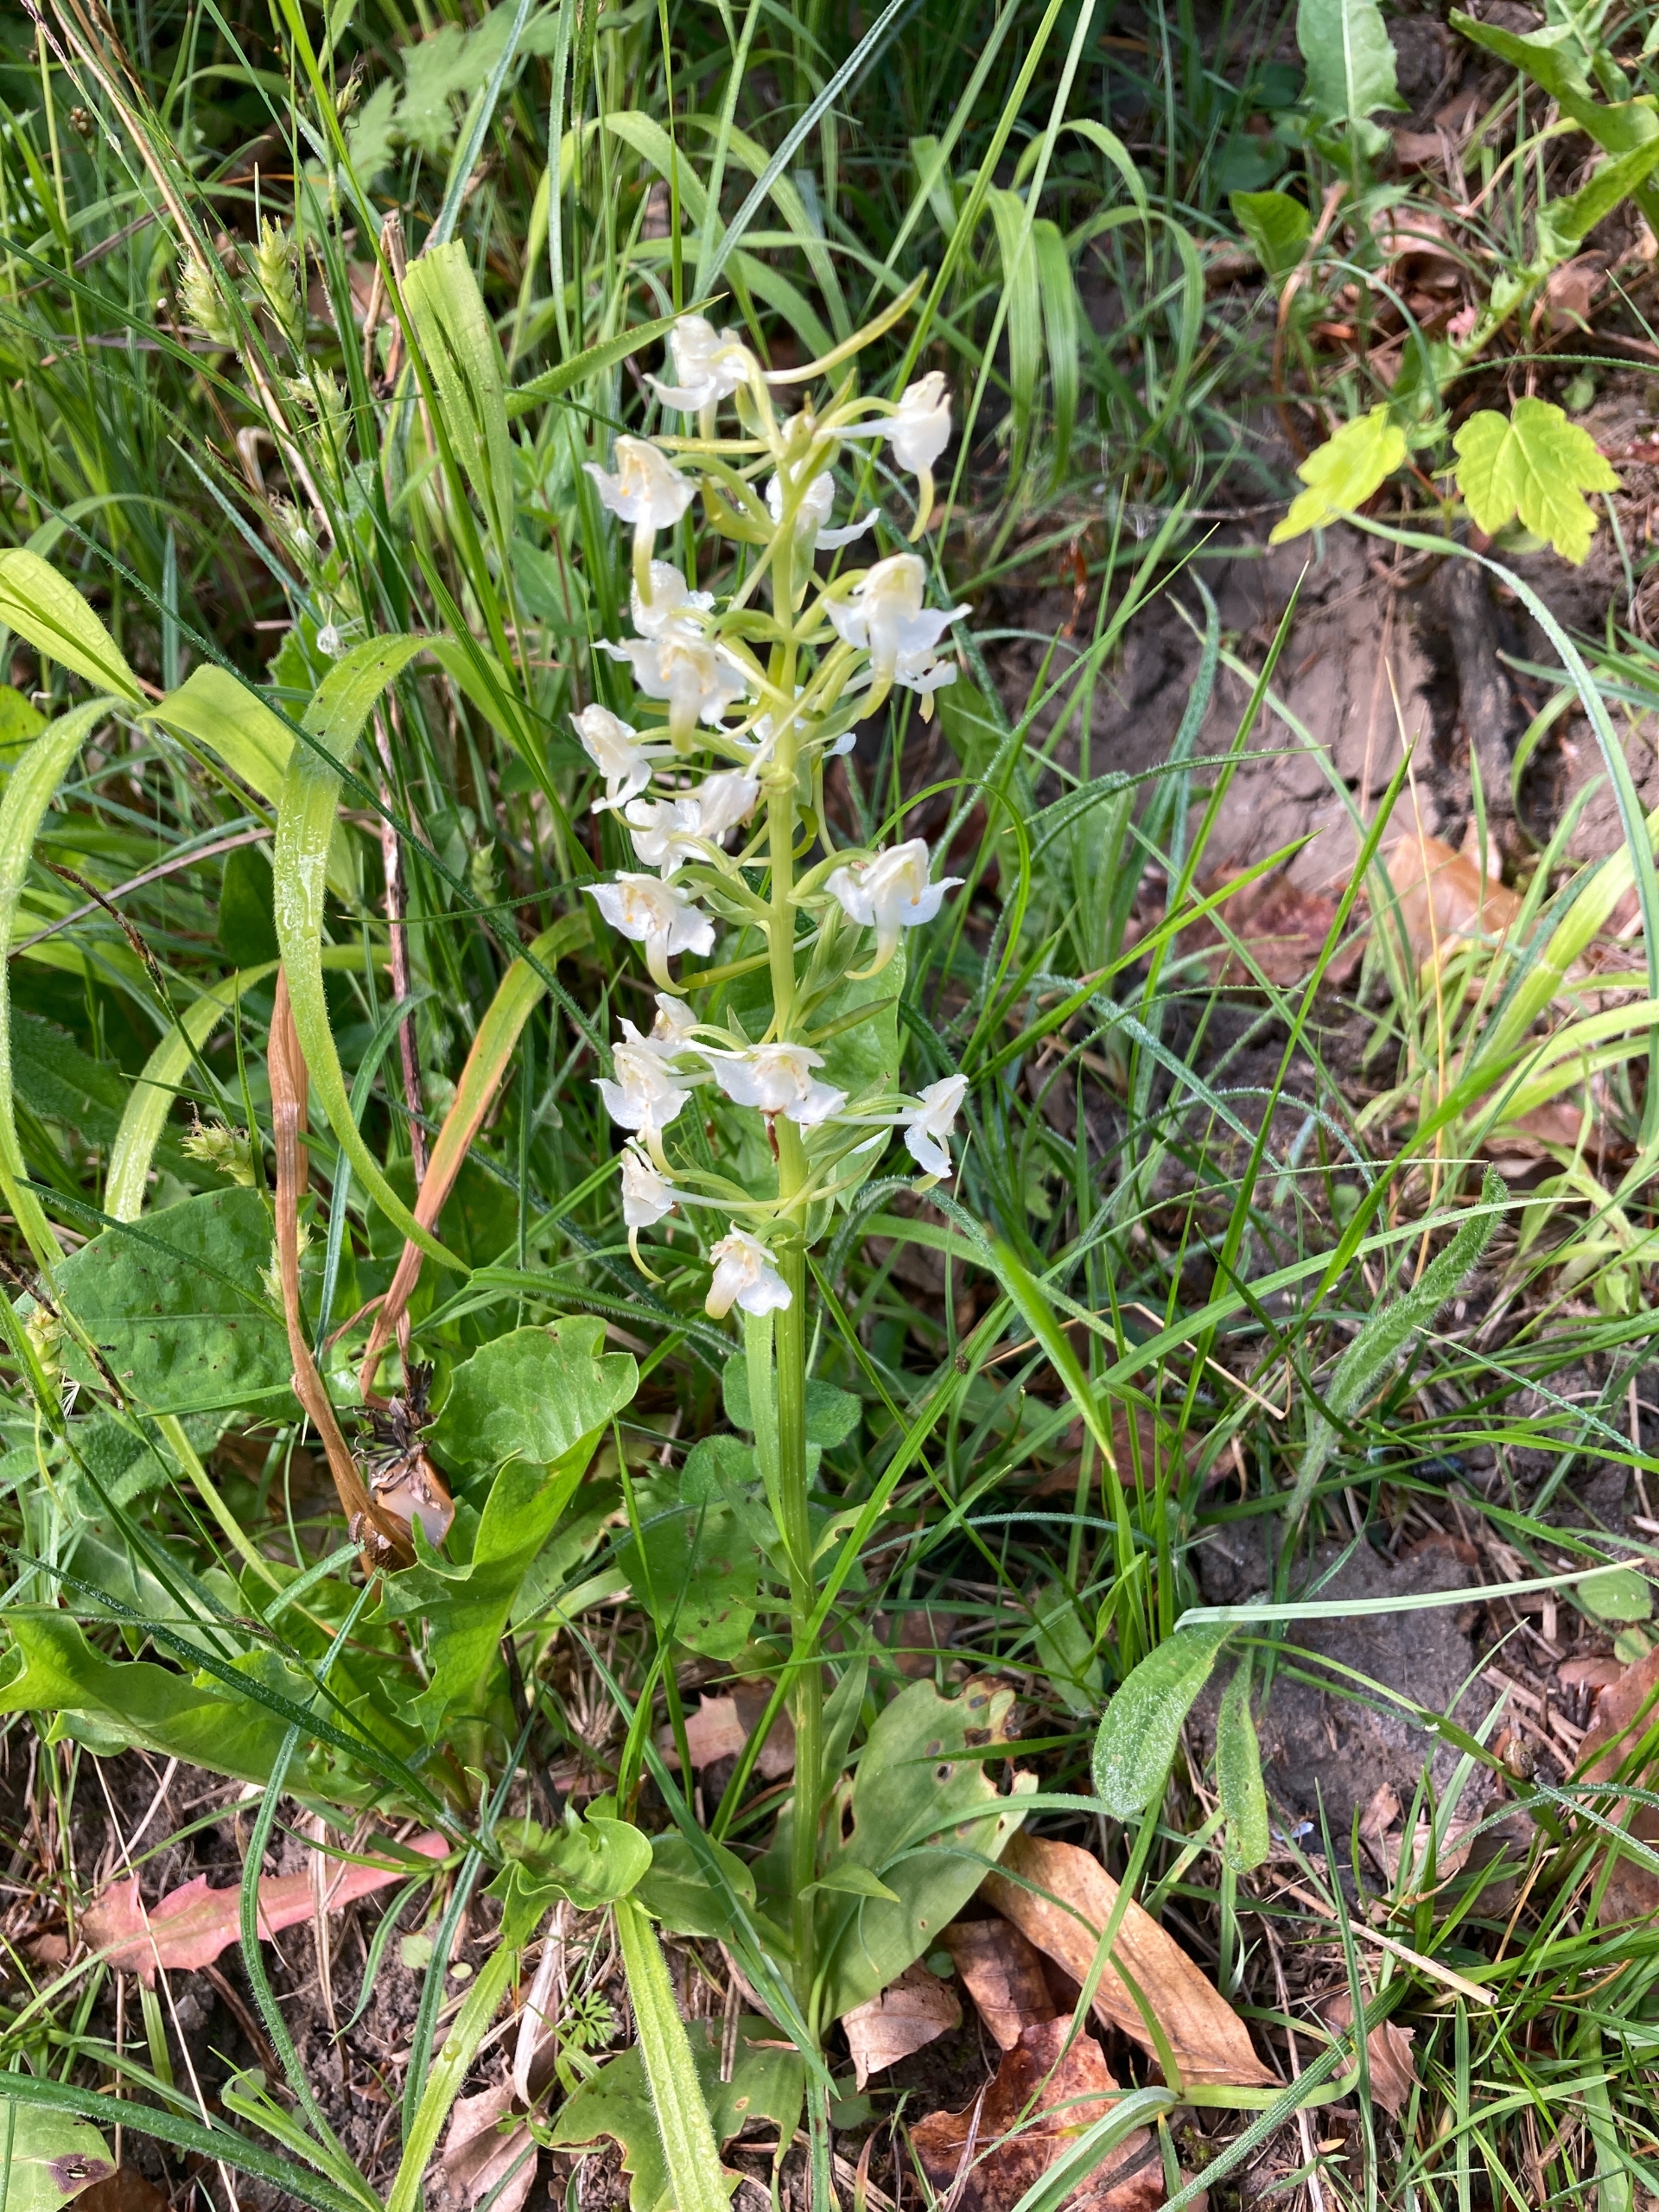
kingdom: Plantae
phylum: Tracheophyta
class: Liliopsida
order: Asparagales
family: Orchidaceae
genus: Platanthera
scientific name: Platanthera chlorantha
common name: Skov-gøgelilje
